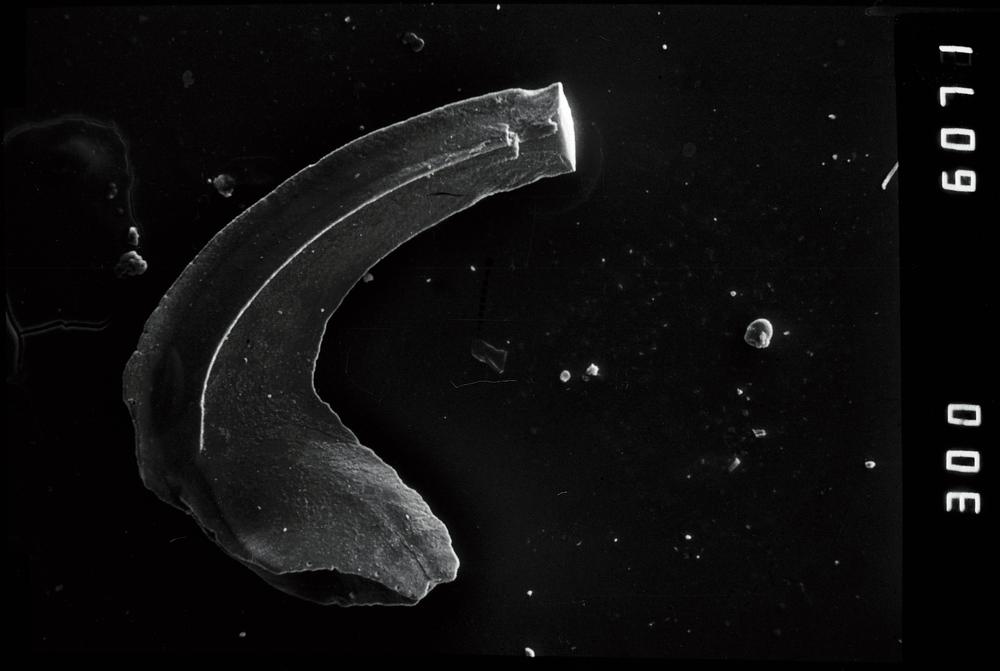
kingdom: Animalia
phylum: Chordata
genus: Paroistodus
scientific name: Paroistodus
